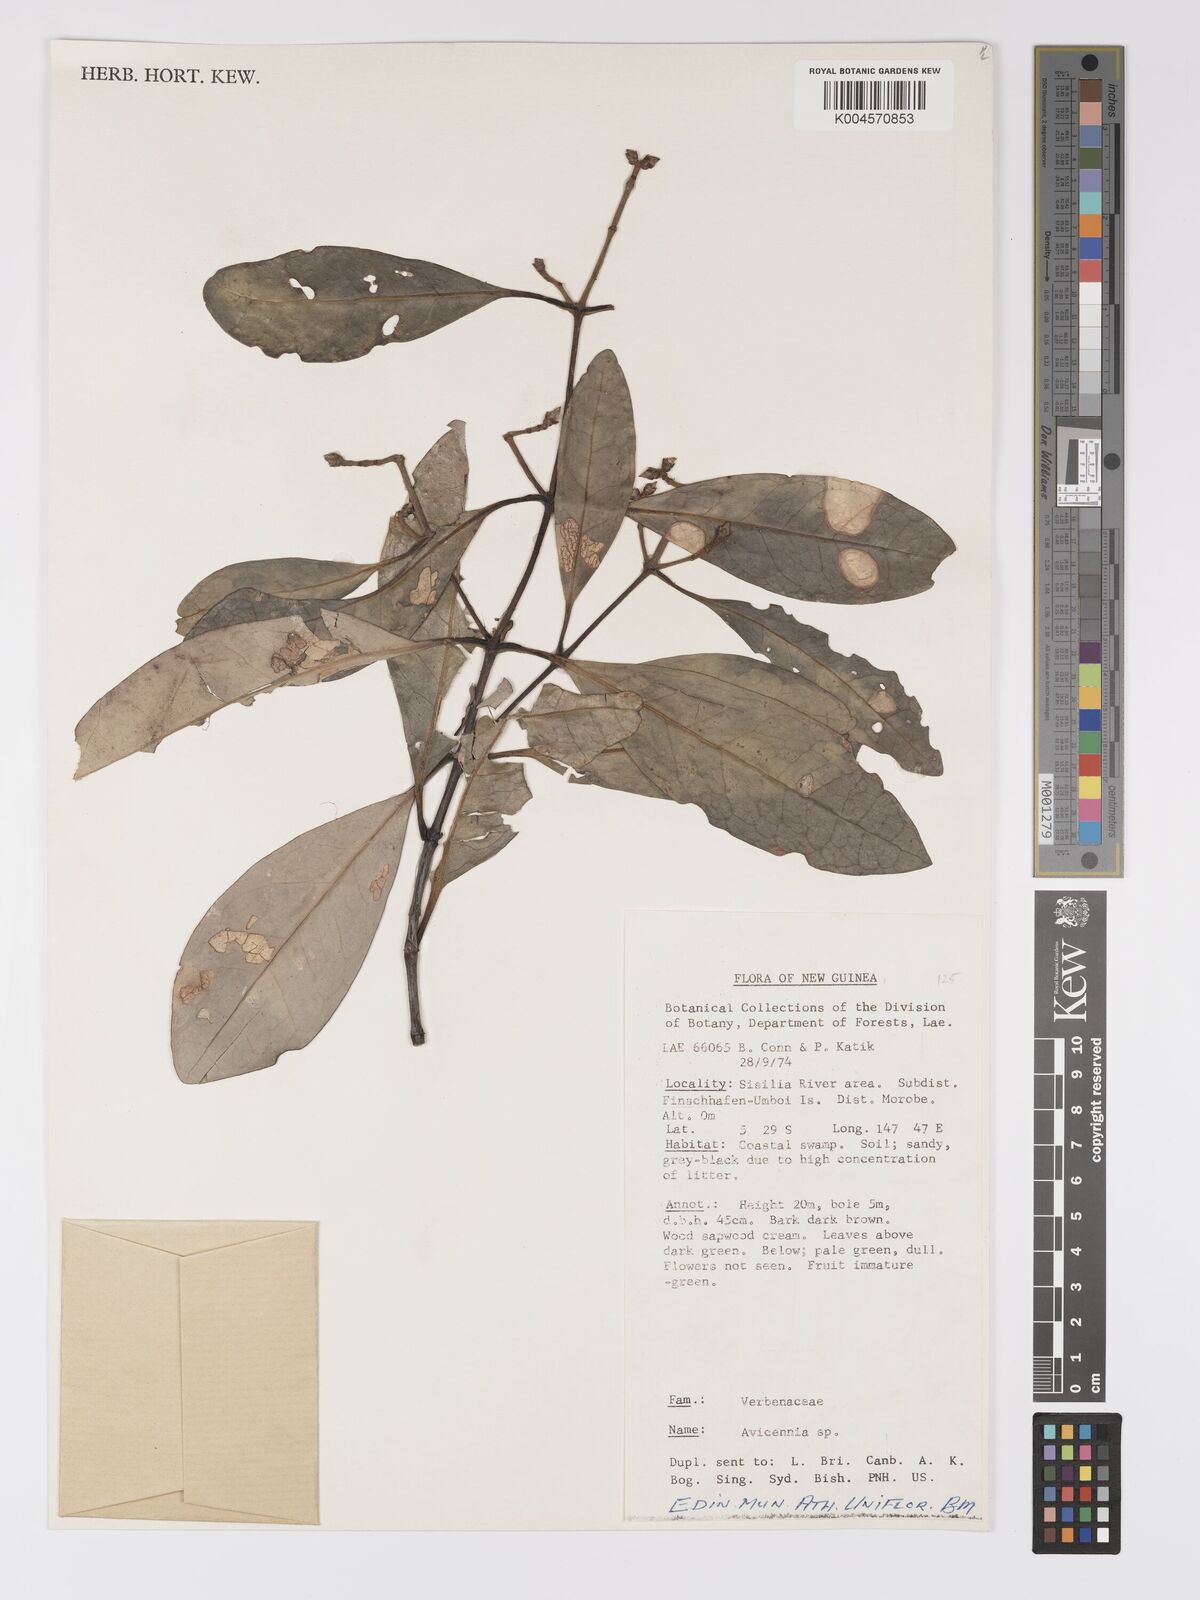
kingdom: Plantae
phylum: Tracheophyta
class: Magnoliopsida
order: Lamiales
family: Acanthaceae
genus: Avicennia
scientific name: Avicennia marina
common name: Gray mangrove
